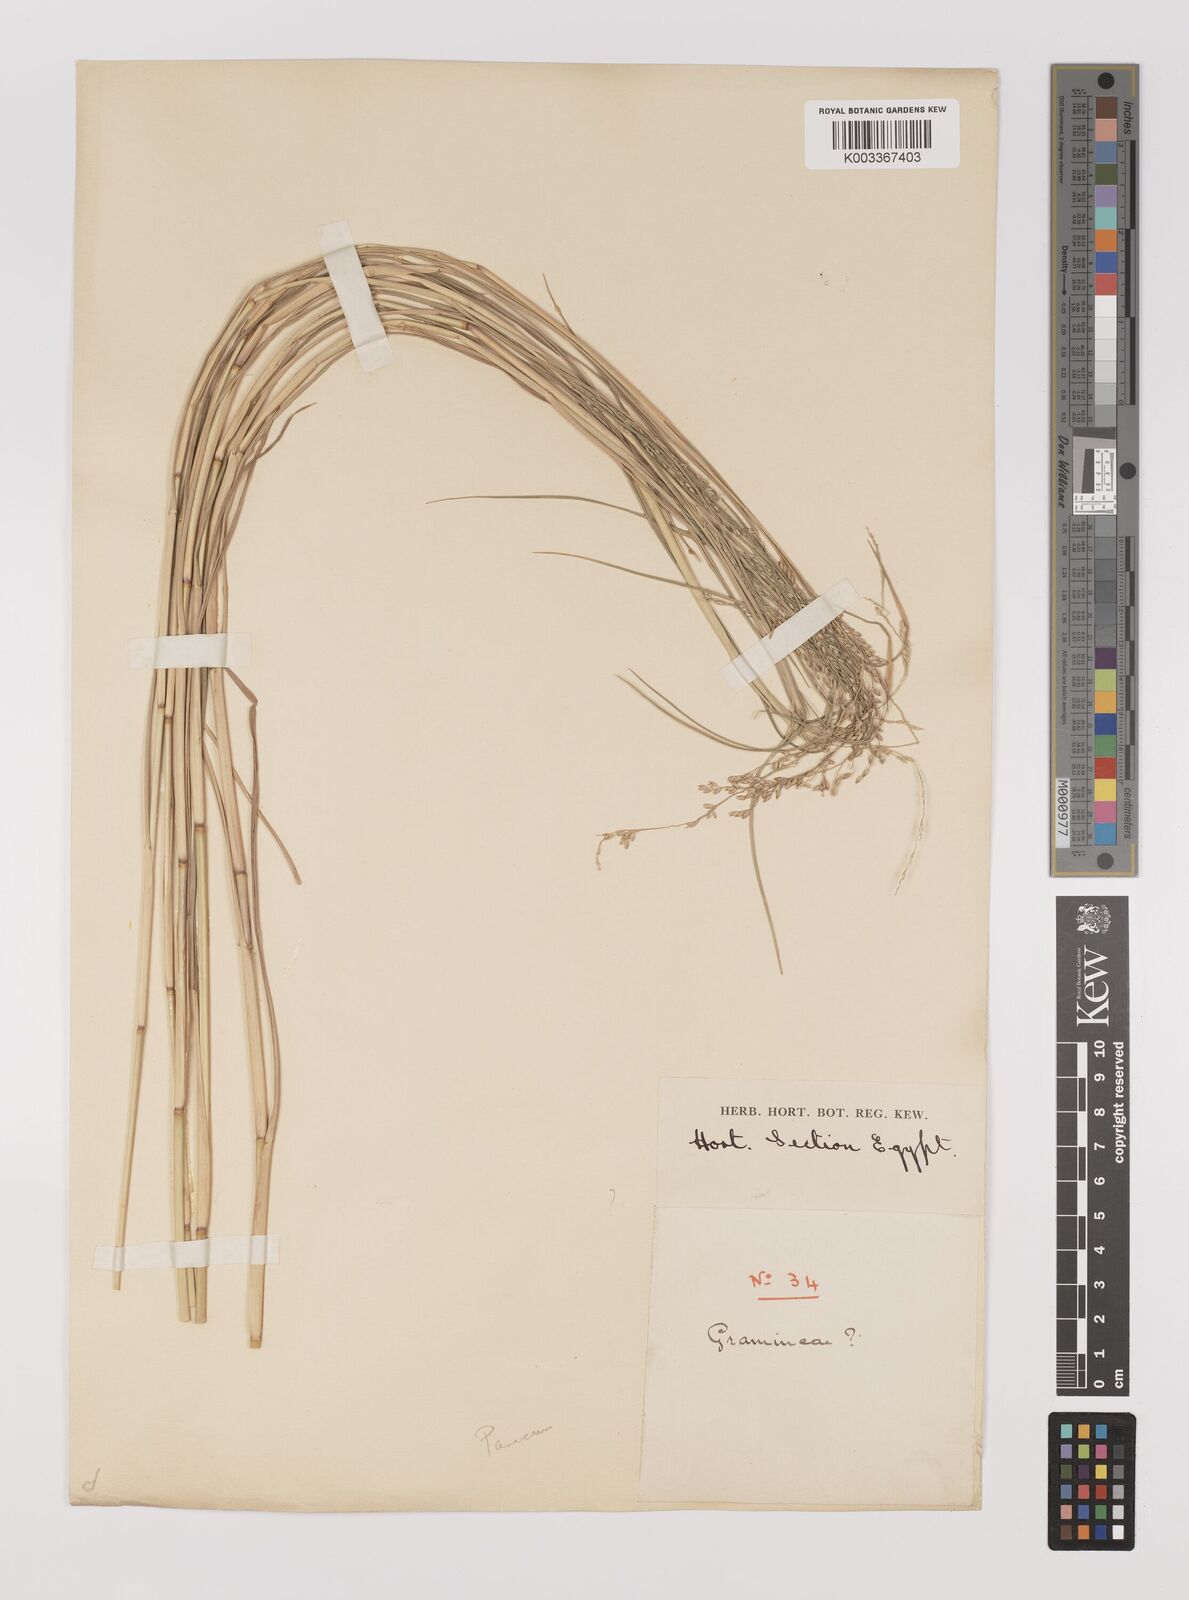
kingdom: Plantae
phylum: Tracheophyta
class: Liliopsida
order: Poales
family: Poaceae
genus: Panicum
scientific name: Panicum turgidum
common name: Desert grass
